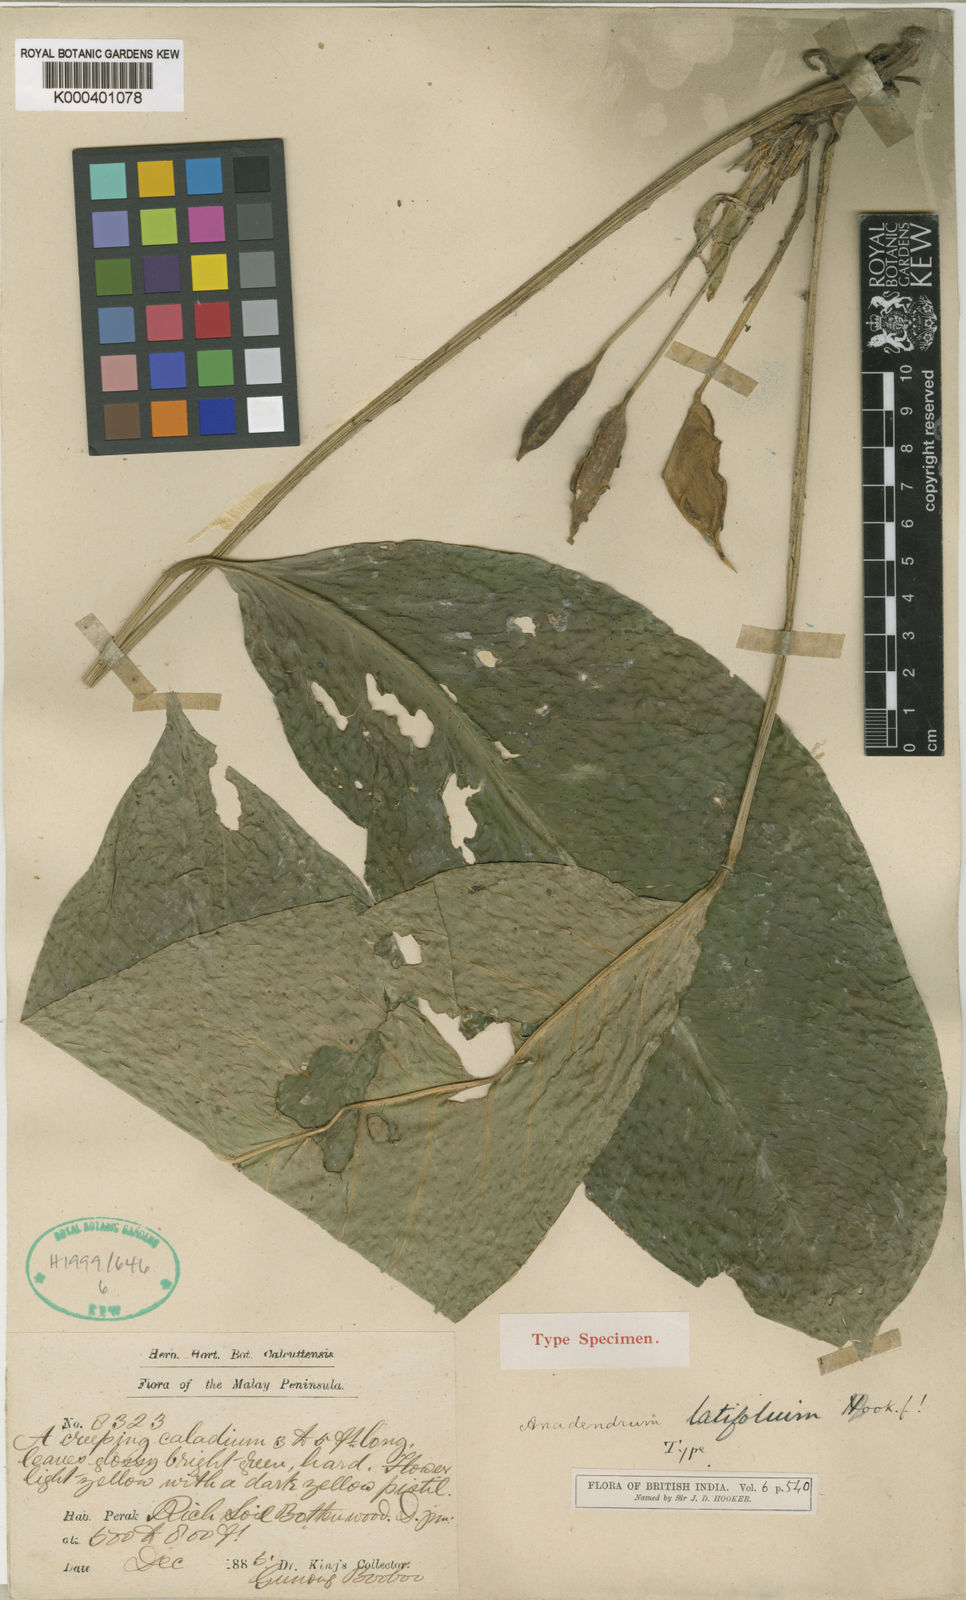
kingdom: Plantae
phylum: Tracheophyta
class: Liliopsida
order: Alismatales
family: Araceae
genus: Anadendrum
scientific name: Anadendrum latifolium
